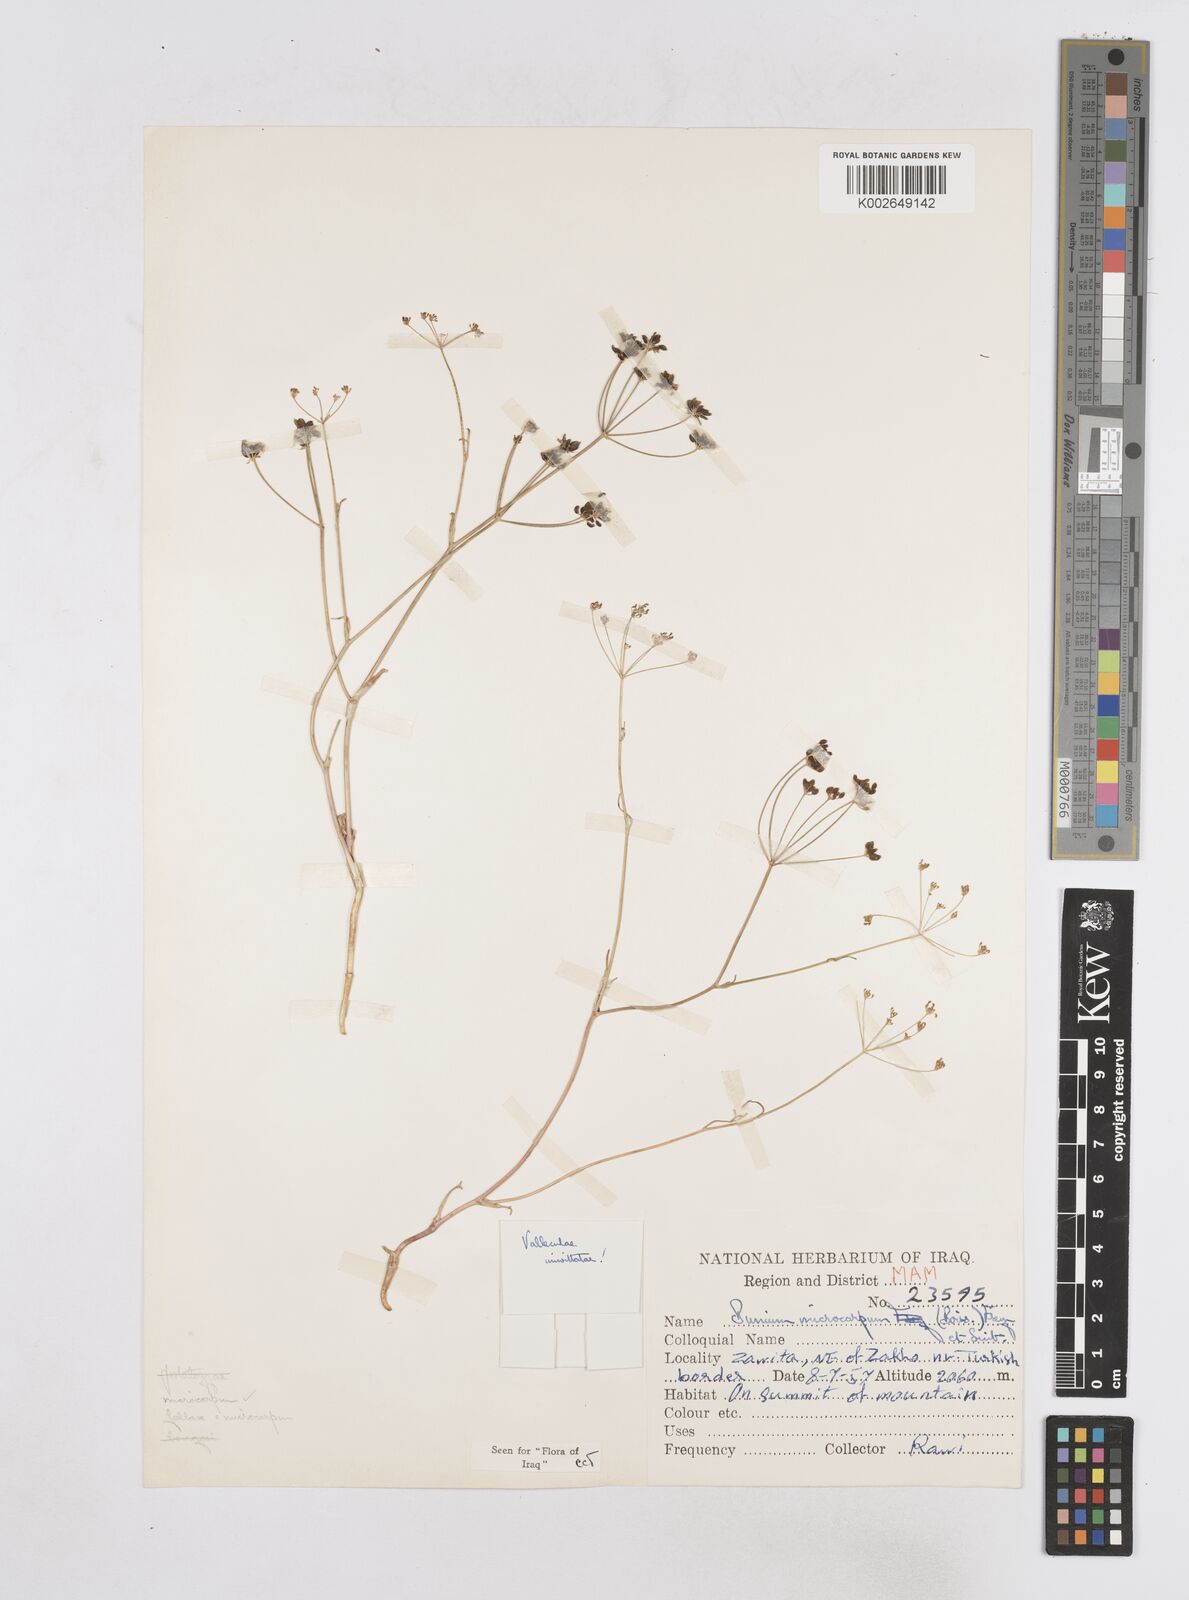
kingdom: Plantae
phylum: Tracheophyta
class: Magnoliopsida
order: Apiales
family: Apiaceae
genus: Bunium
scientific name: Bunium microcarpum
